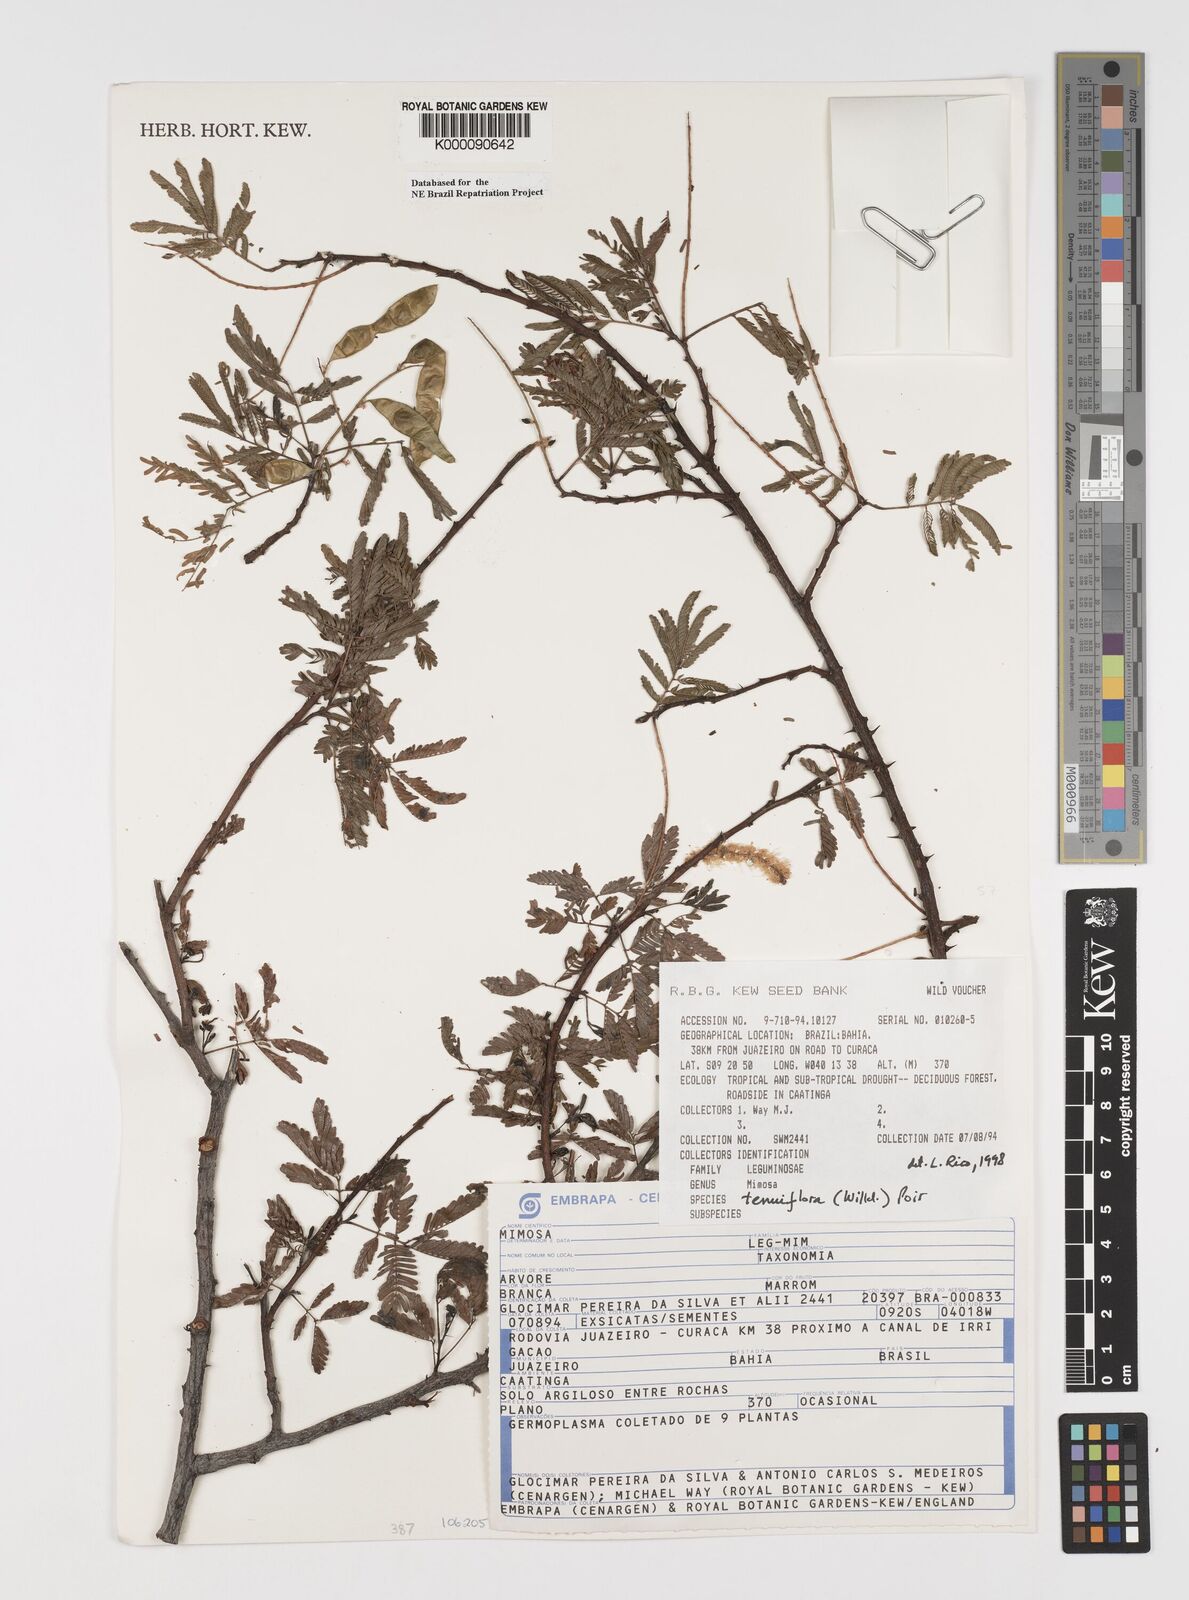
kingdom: Plantae
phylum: Tracheophyta
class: Magnoliopsida
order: Fabales
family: Fabaceae
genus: Mimosa
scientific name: Mimosa tenuiflora
